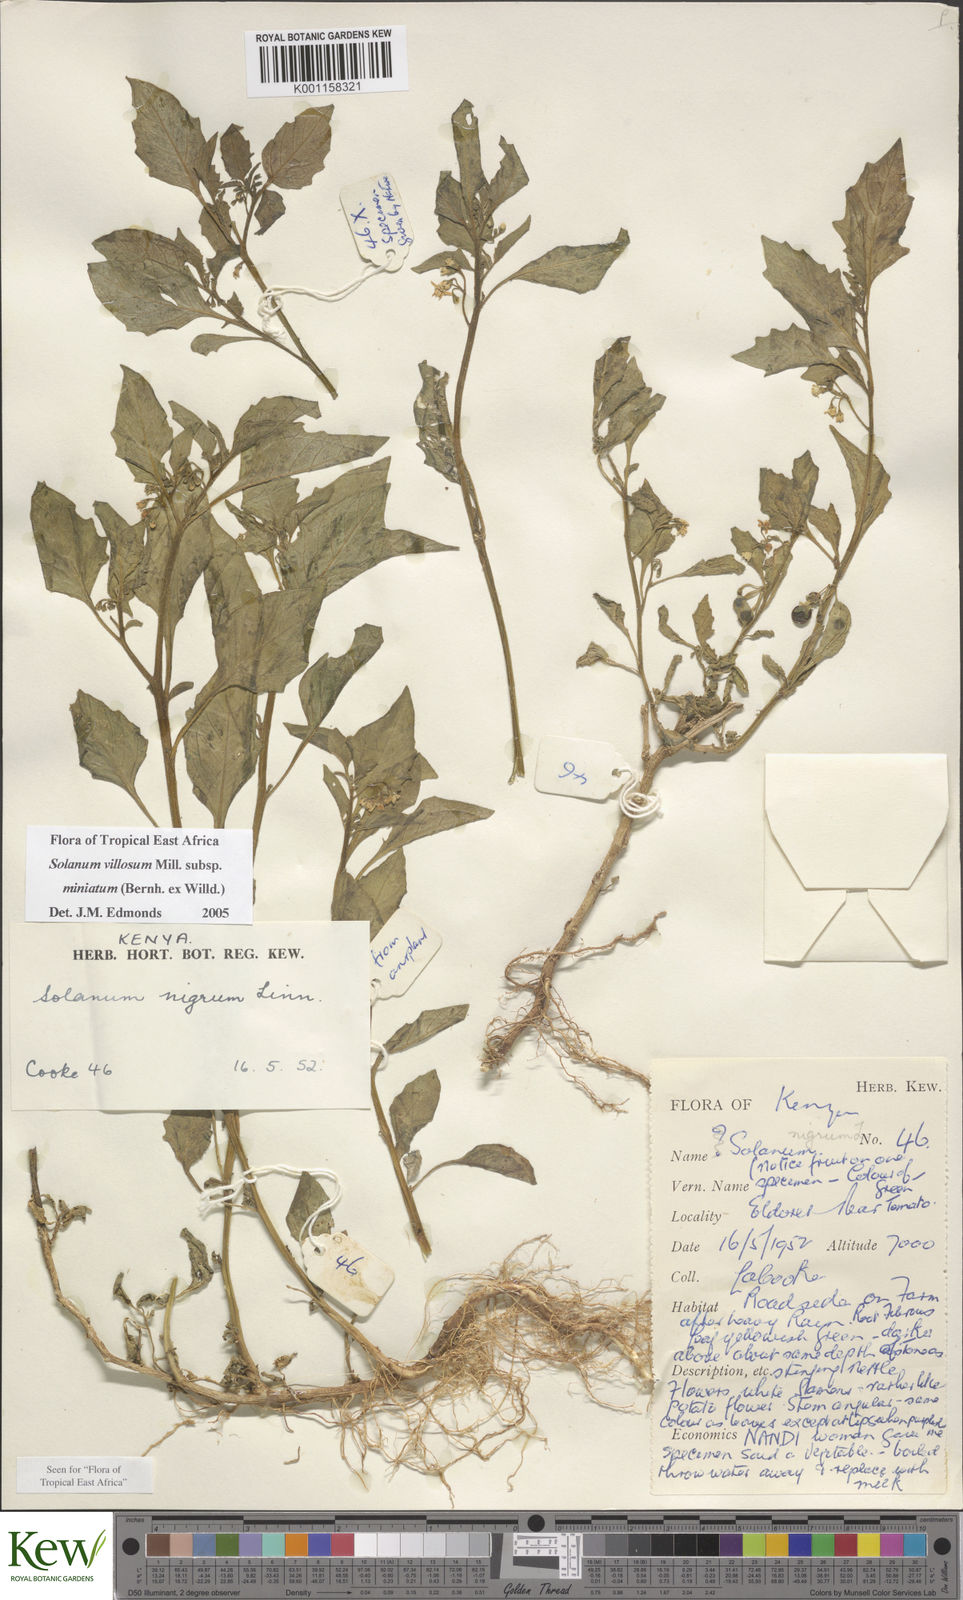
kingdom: Plantae
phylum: Tracheophyta
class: Magnoliopsida
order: Solanales
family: Solanaceae
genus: Solanum
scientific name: Solanum villosum
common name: Red nightshade
